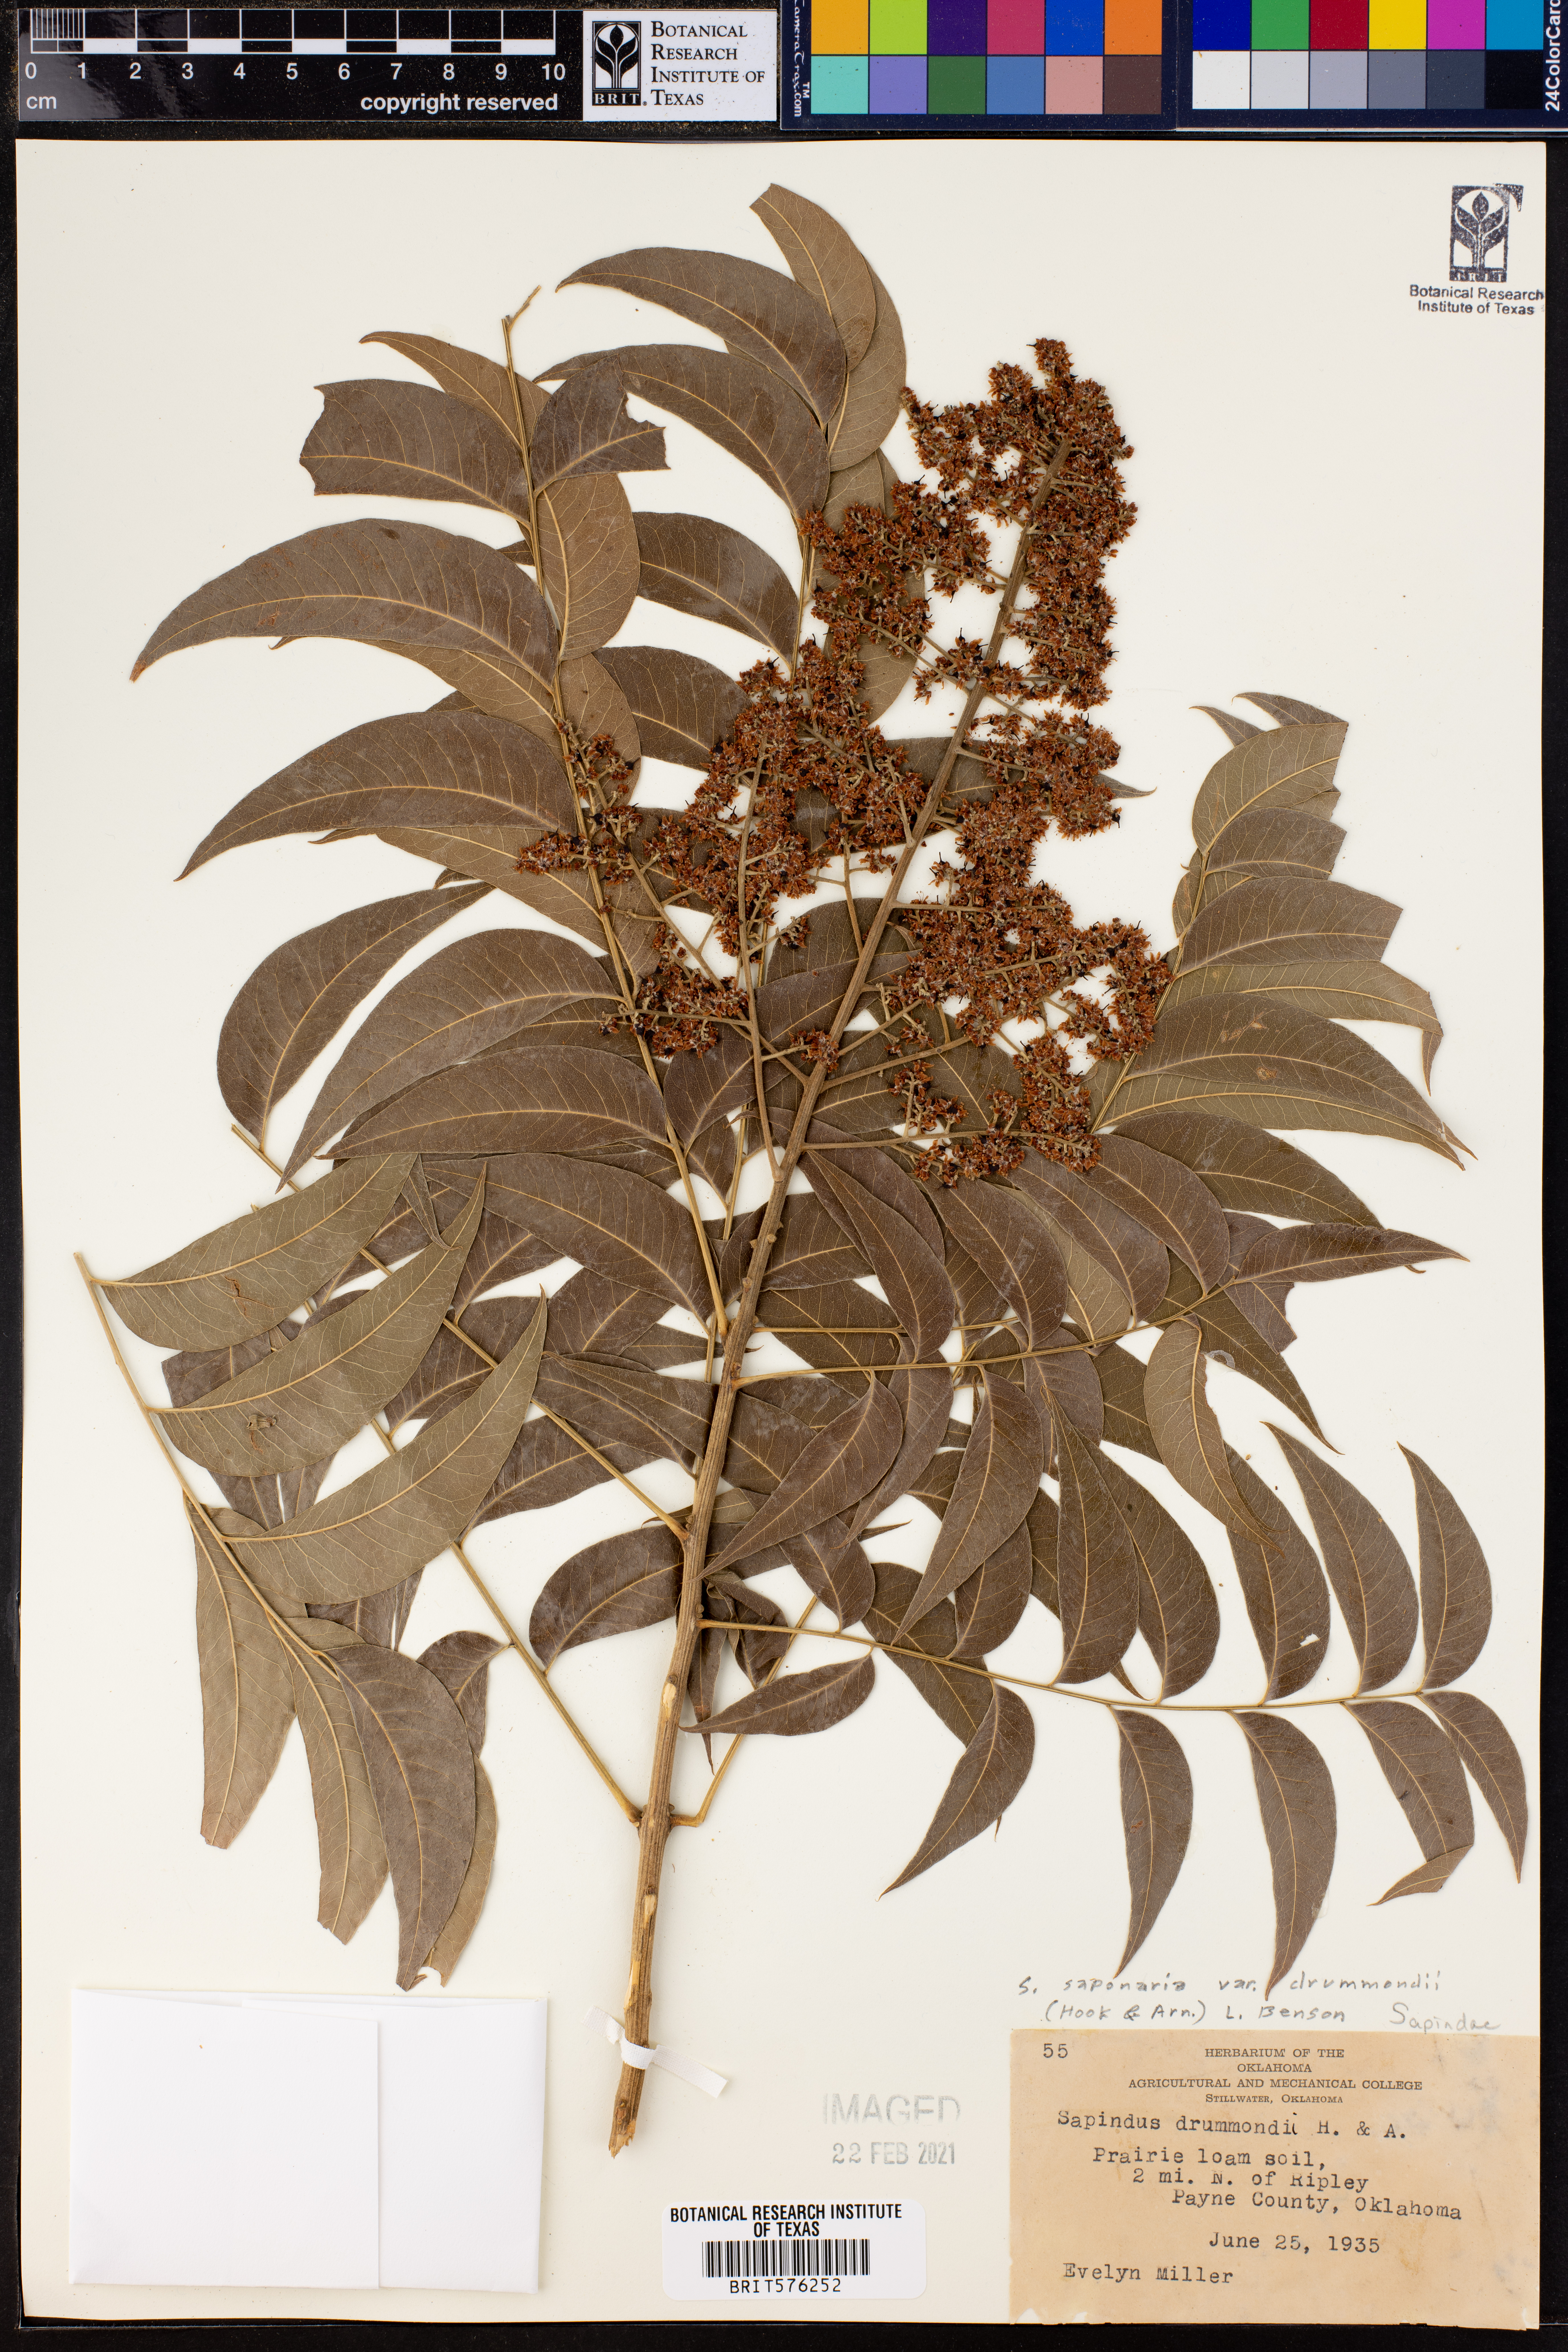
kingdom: Plantae
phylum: Tracheophyta
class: Magnoliopsida
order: Sapindales
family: Sapindaceae
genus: Sapindus
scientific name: Sapindus drummondii
